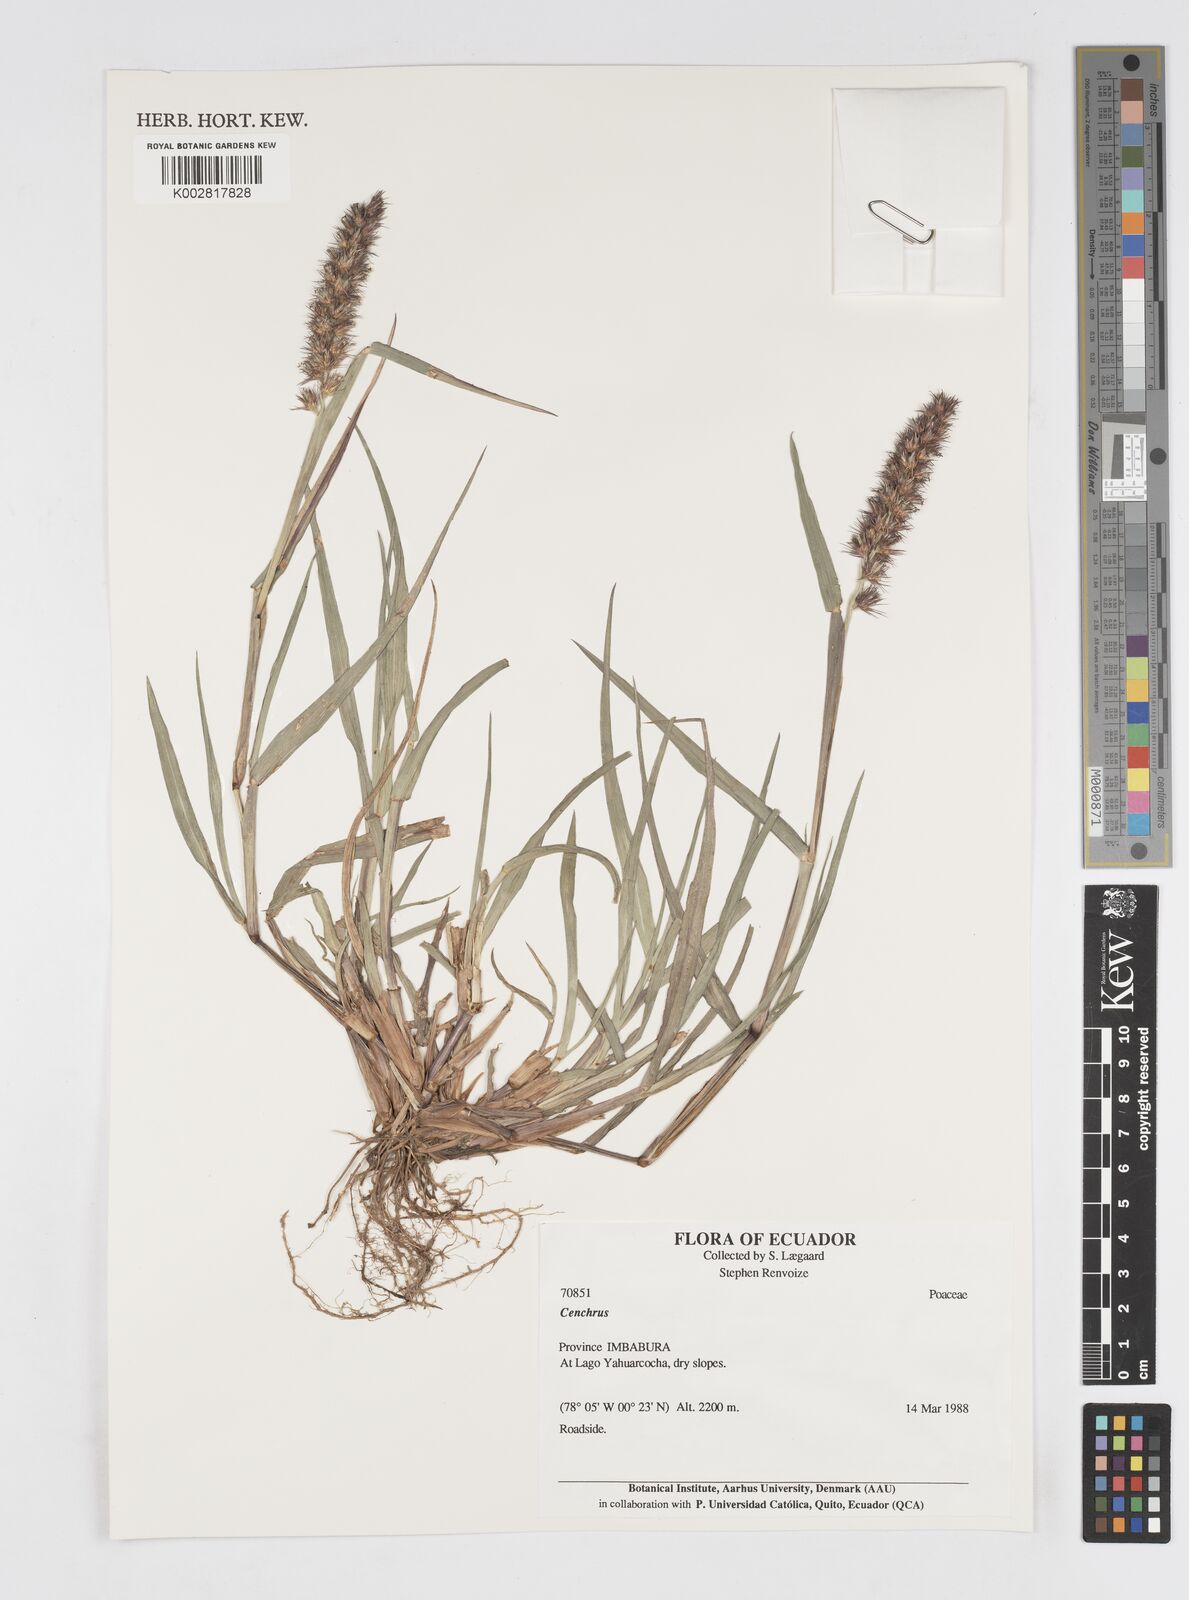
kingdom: Plantae
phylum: Tracheophyta
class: Liliopsida
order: Poales
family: Poaceae
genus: Cenchrus
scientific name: Cenchrus
